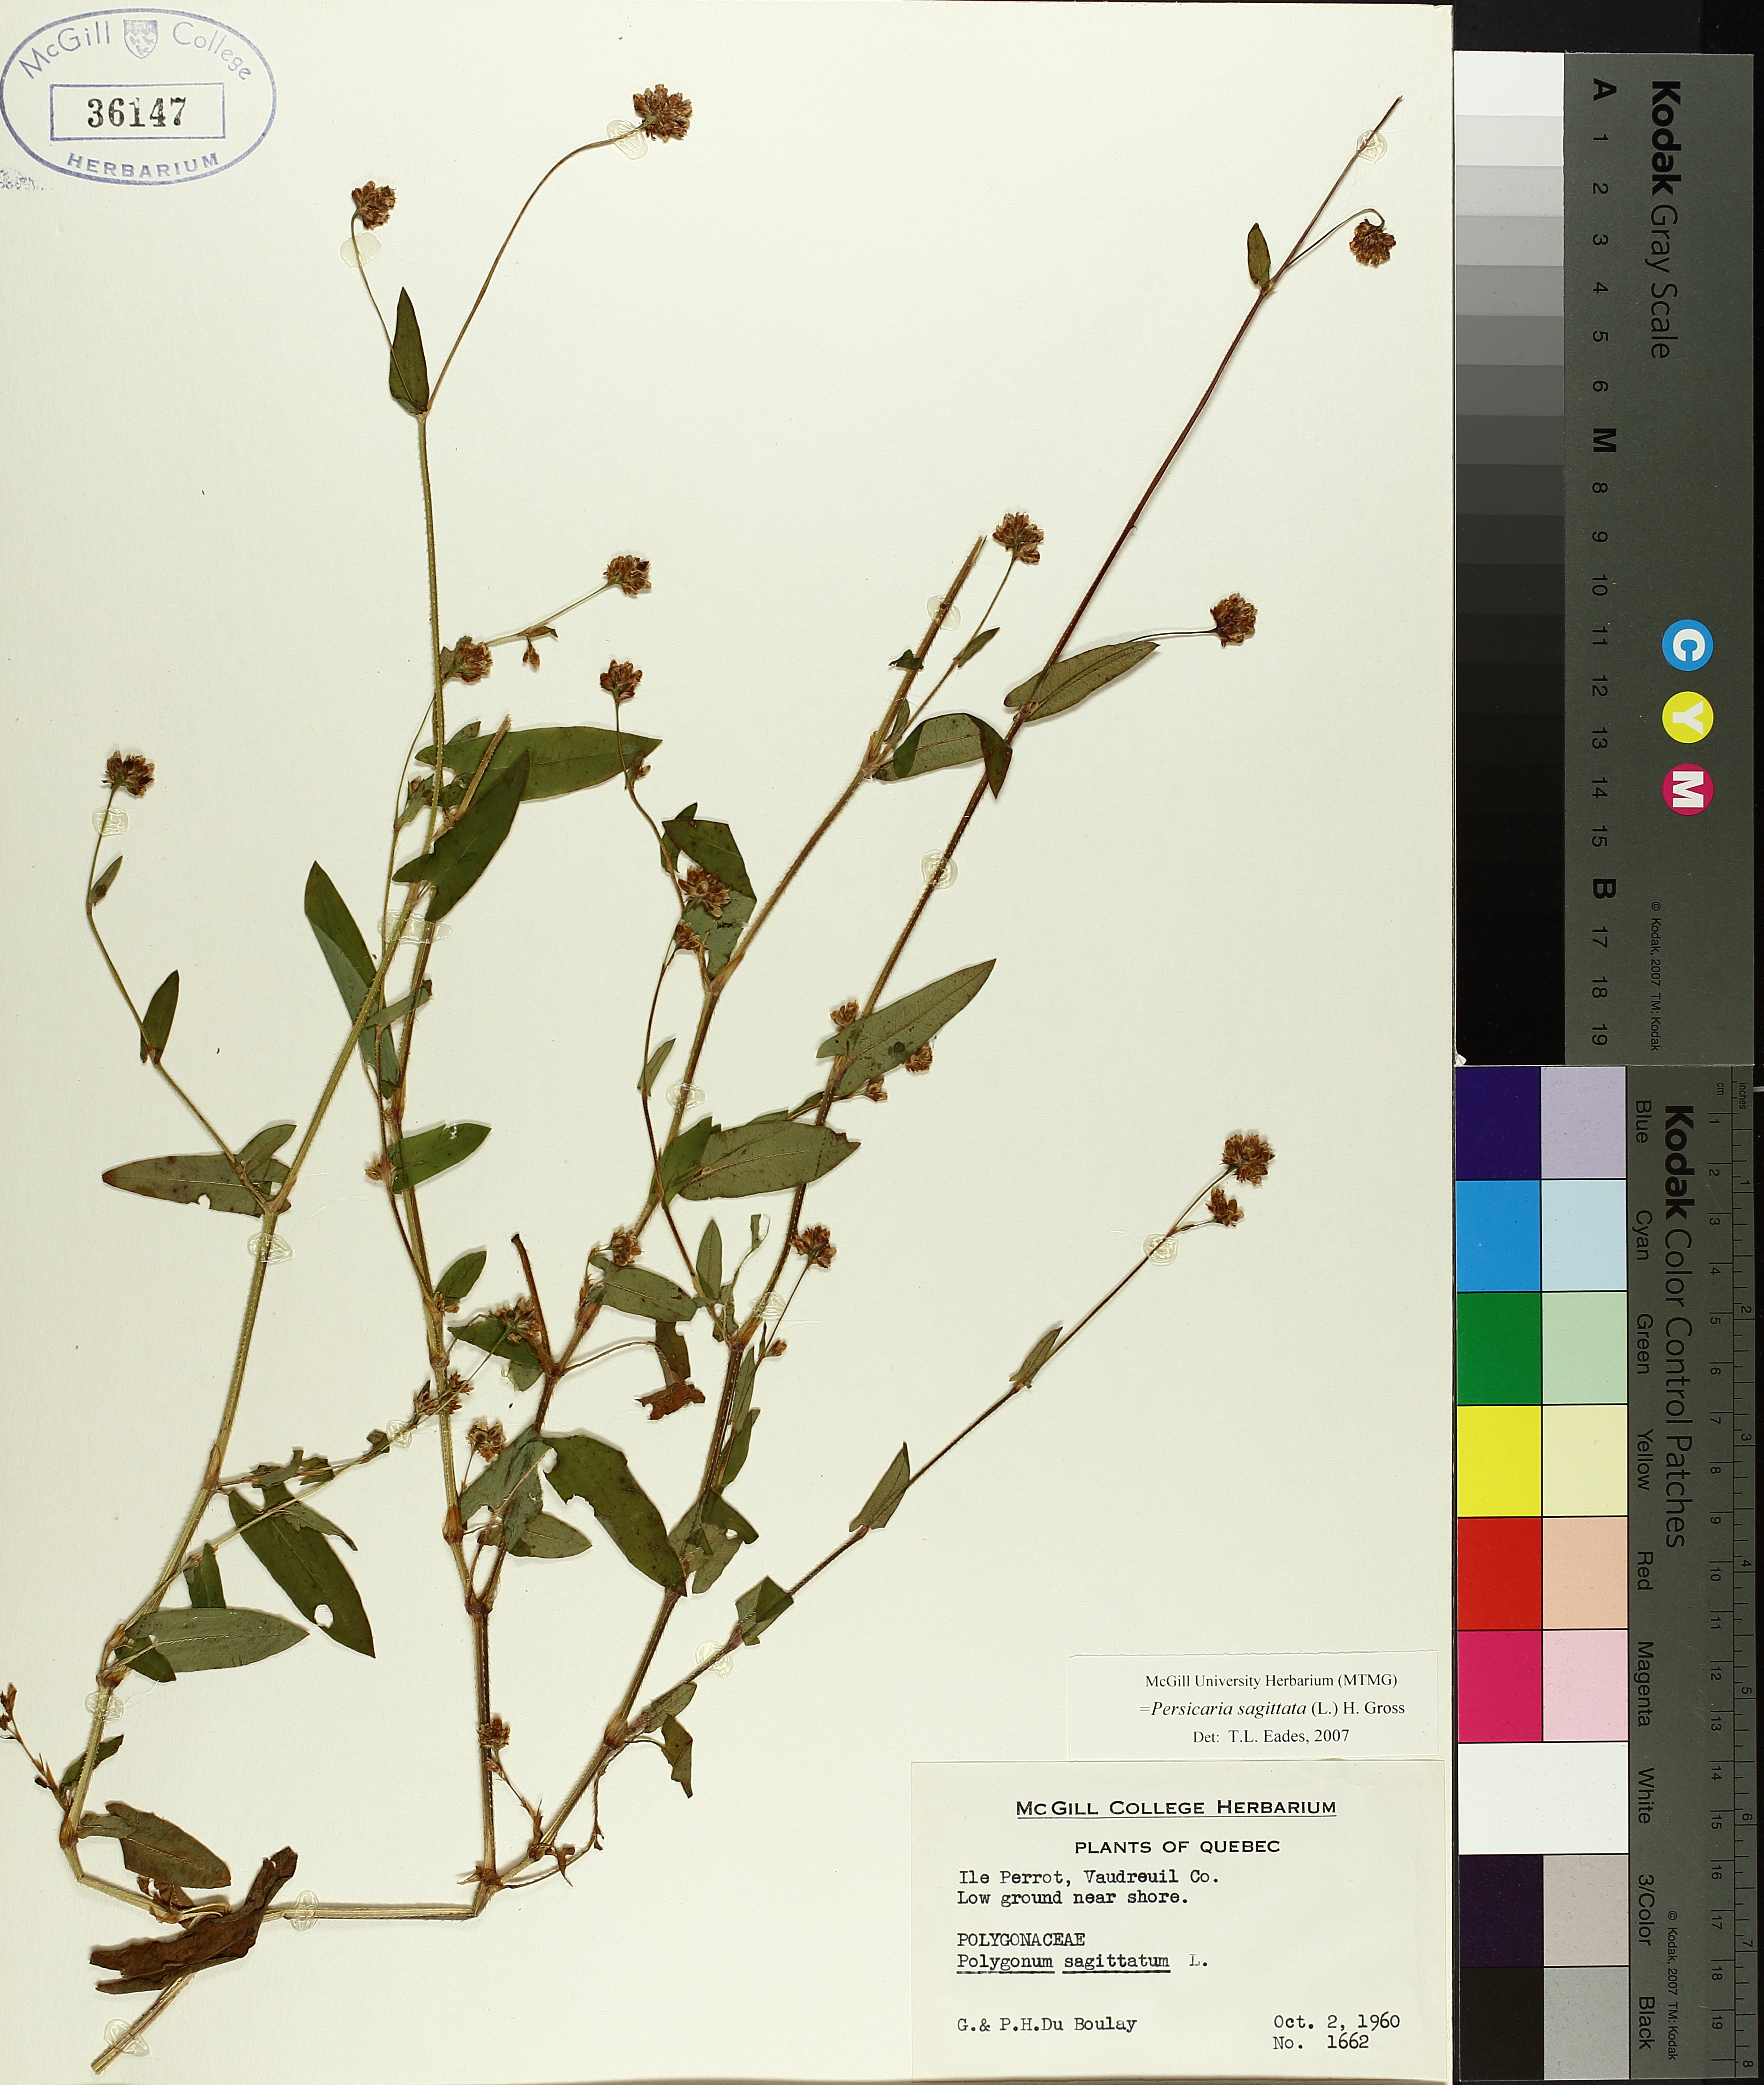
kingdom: Plantae
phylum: Tracheophyta
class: Magnoliopsida
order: Caryophyllales
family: Polygonaceae
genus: Persicaria
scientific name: Persicaria sagittata
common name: American tearthumb
